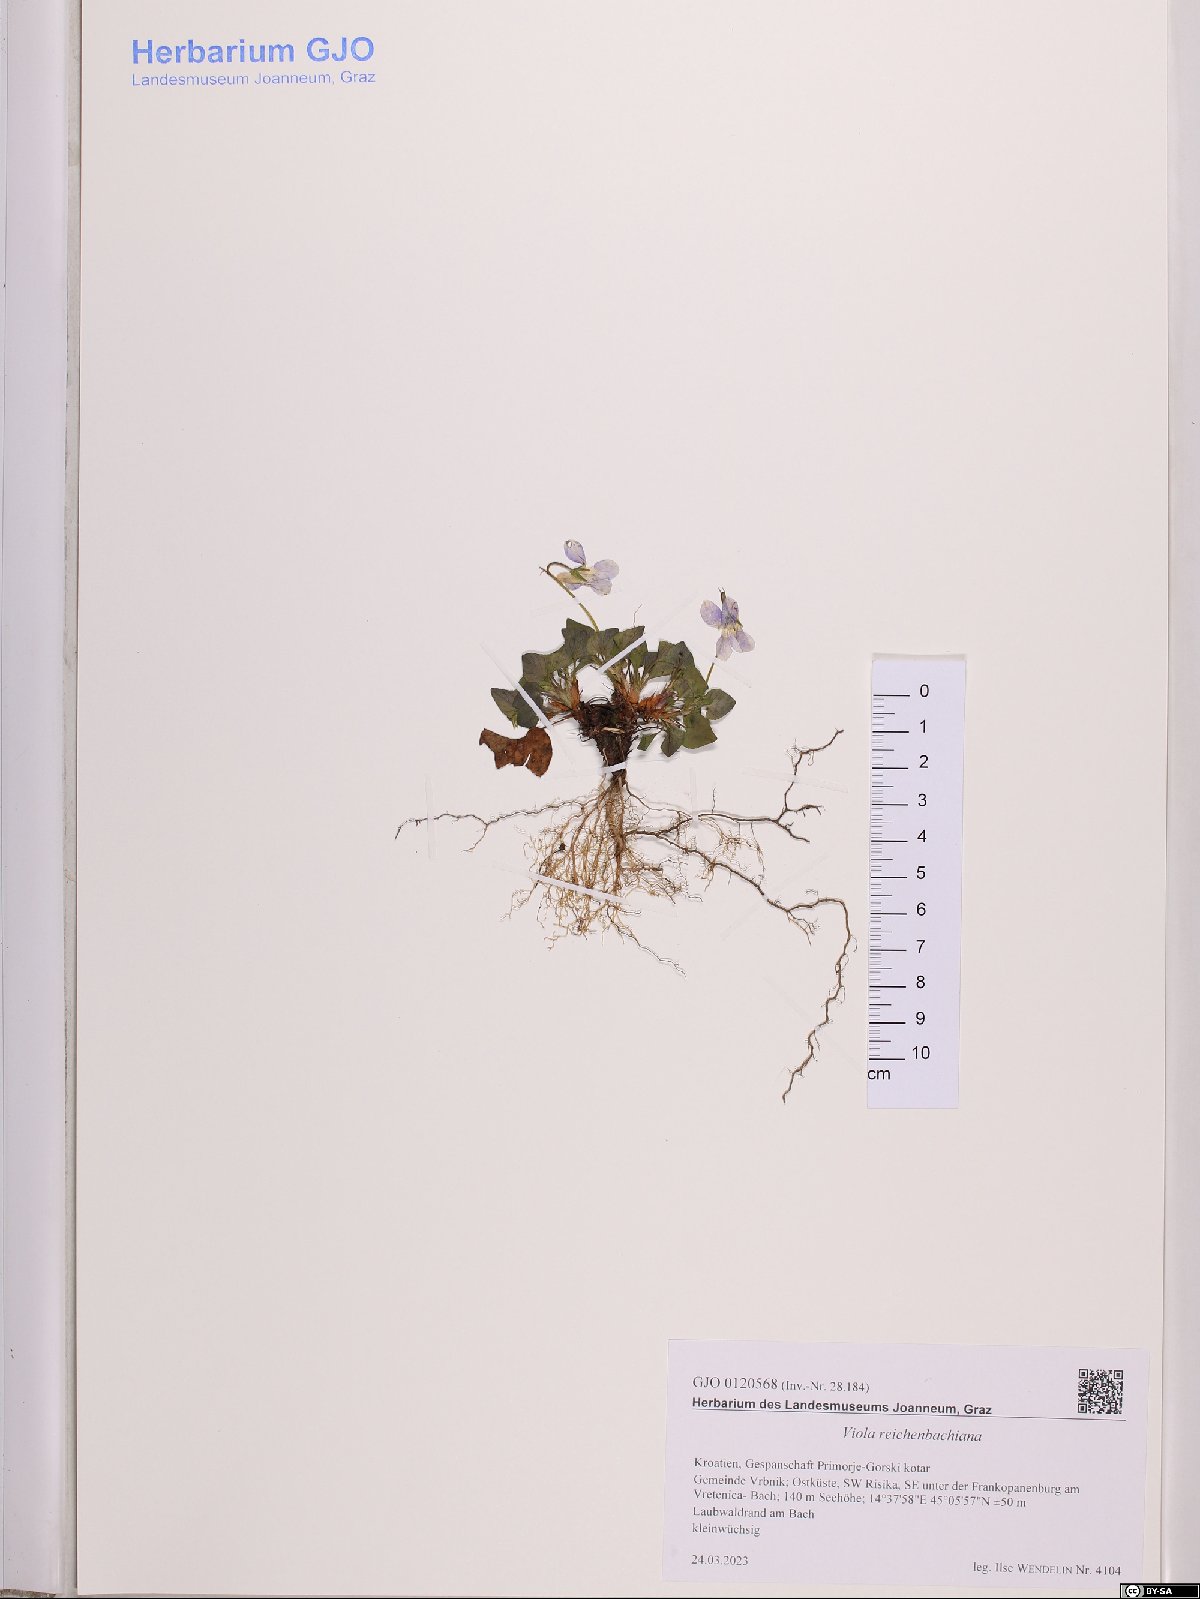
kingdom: Plantae
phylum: Tracheophyta
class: Magnoliopsida
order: Malpighiales
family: Violaceae
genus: Viola
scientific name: Viola reichenbachiana
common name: Early dog-violet
